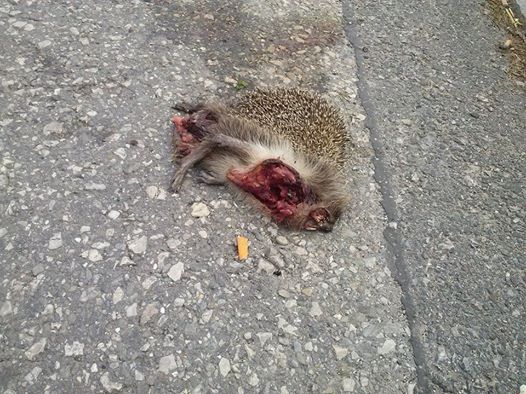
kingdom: Animalia
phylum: Chordata
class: Mammalia
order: Erinaceomorpha
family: Erinaceidae
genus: Erinaceus
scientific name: Erinaceus
